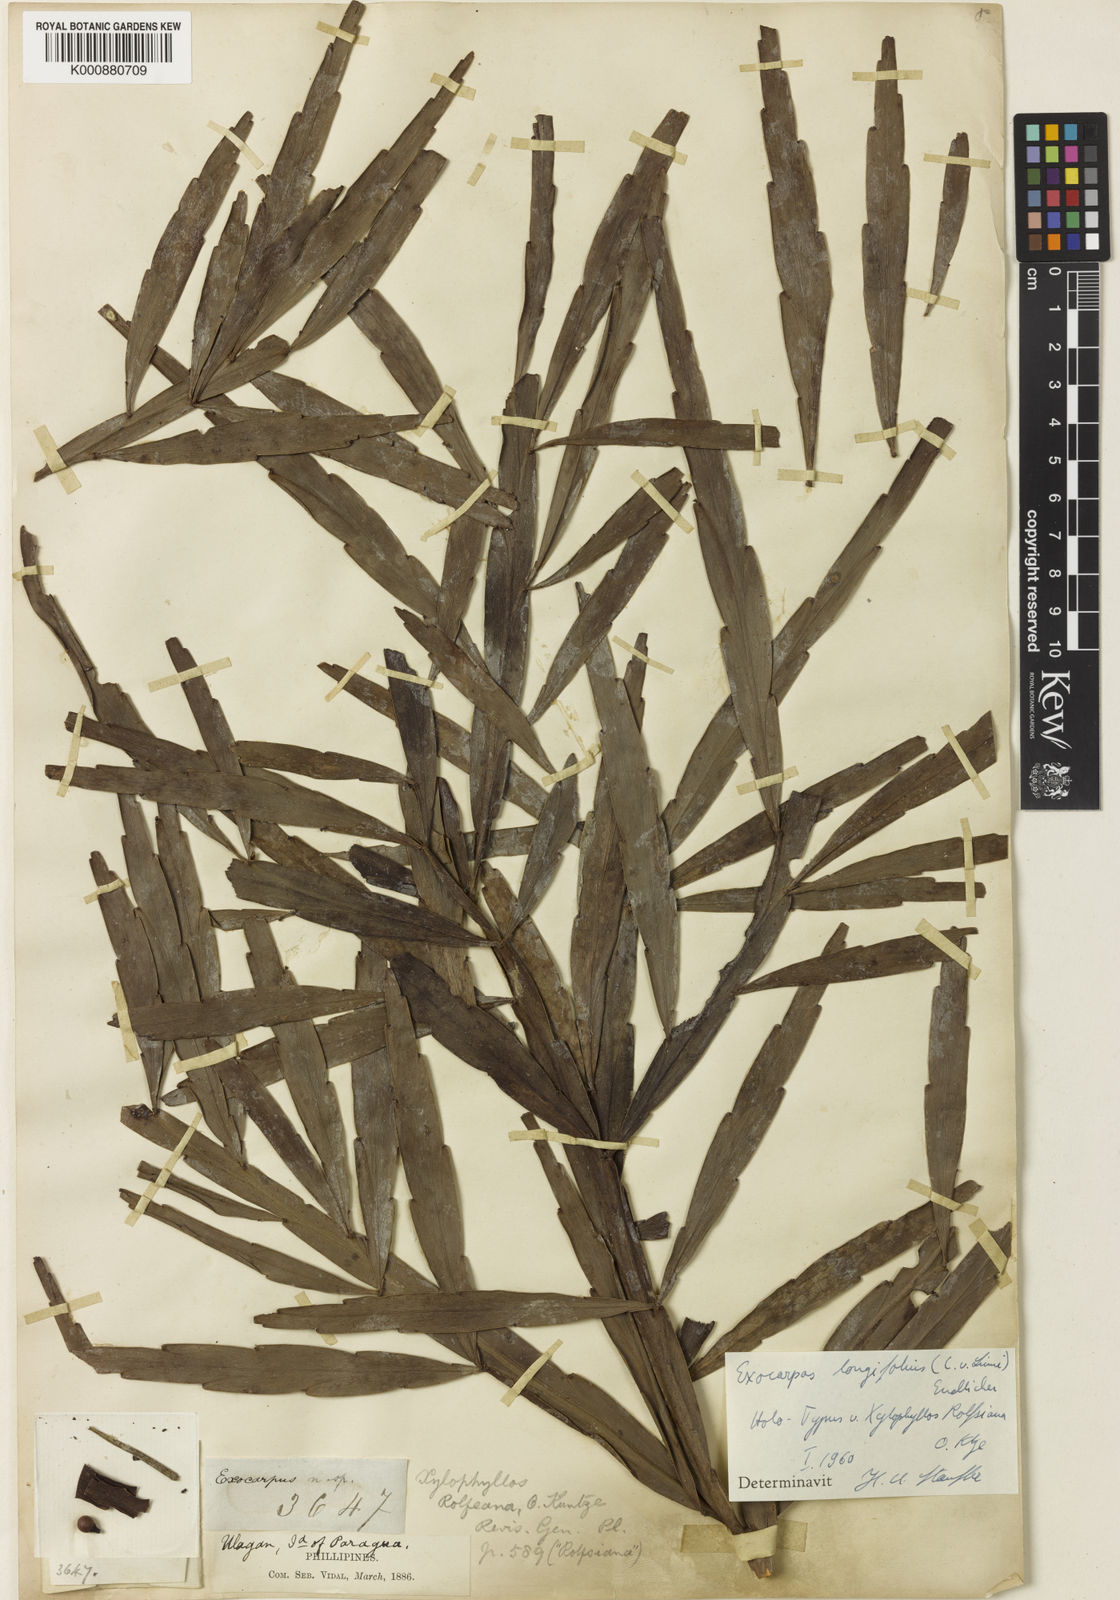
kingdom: Plantae
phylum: Tracheophyta
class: Magnoliopsida
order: Santalales
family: Santalaceae
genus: Exocarpos
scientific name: Exocarpos longifolius
